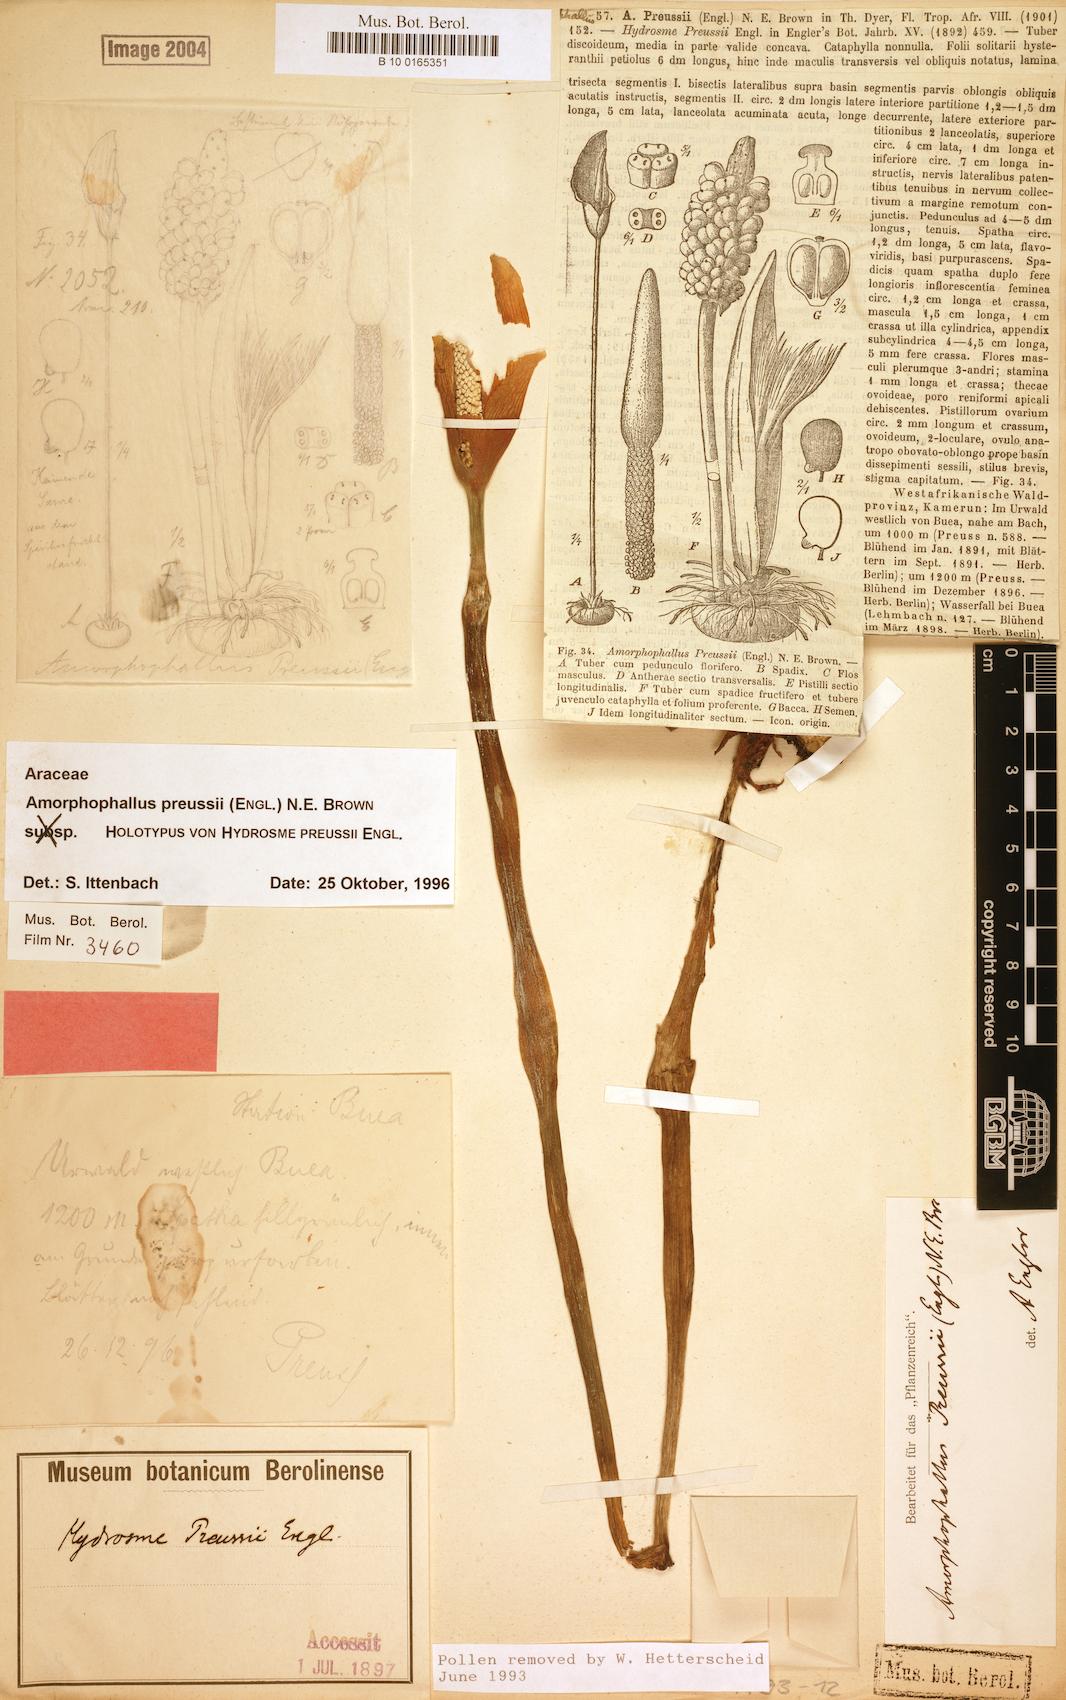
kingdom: Plantae
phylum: Tracheophyta
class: Liliopsida
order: Alismatales
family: Araceae
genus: Amorphophallus
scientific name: Amorphophallus preussii
